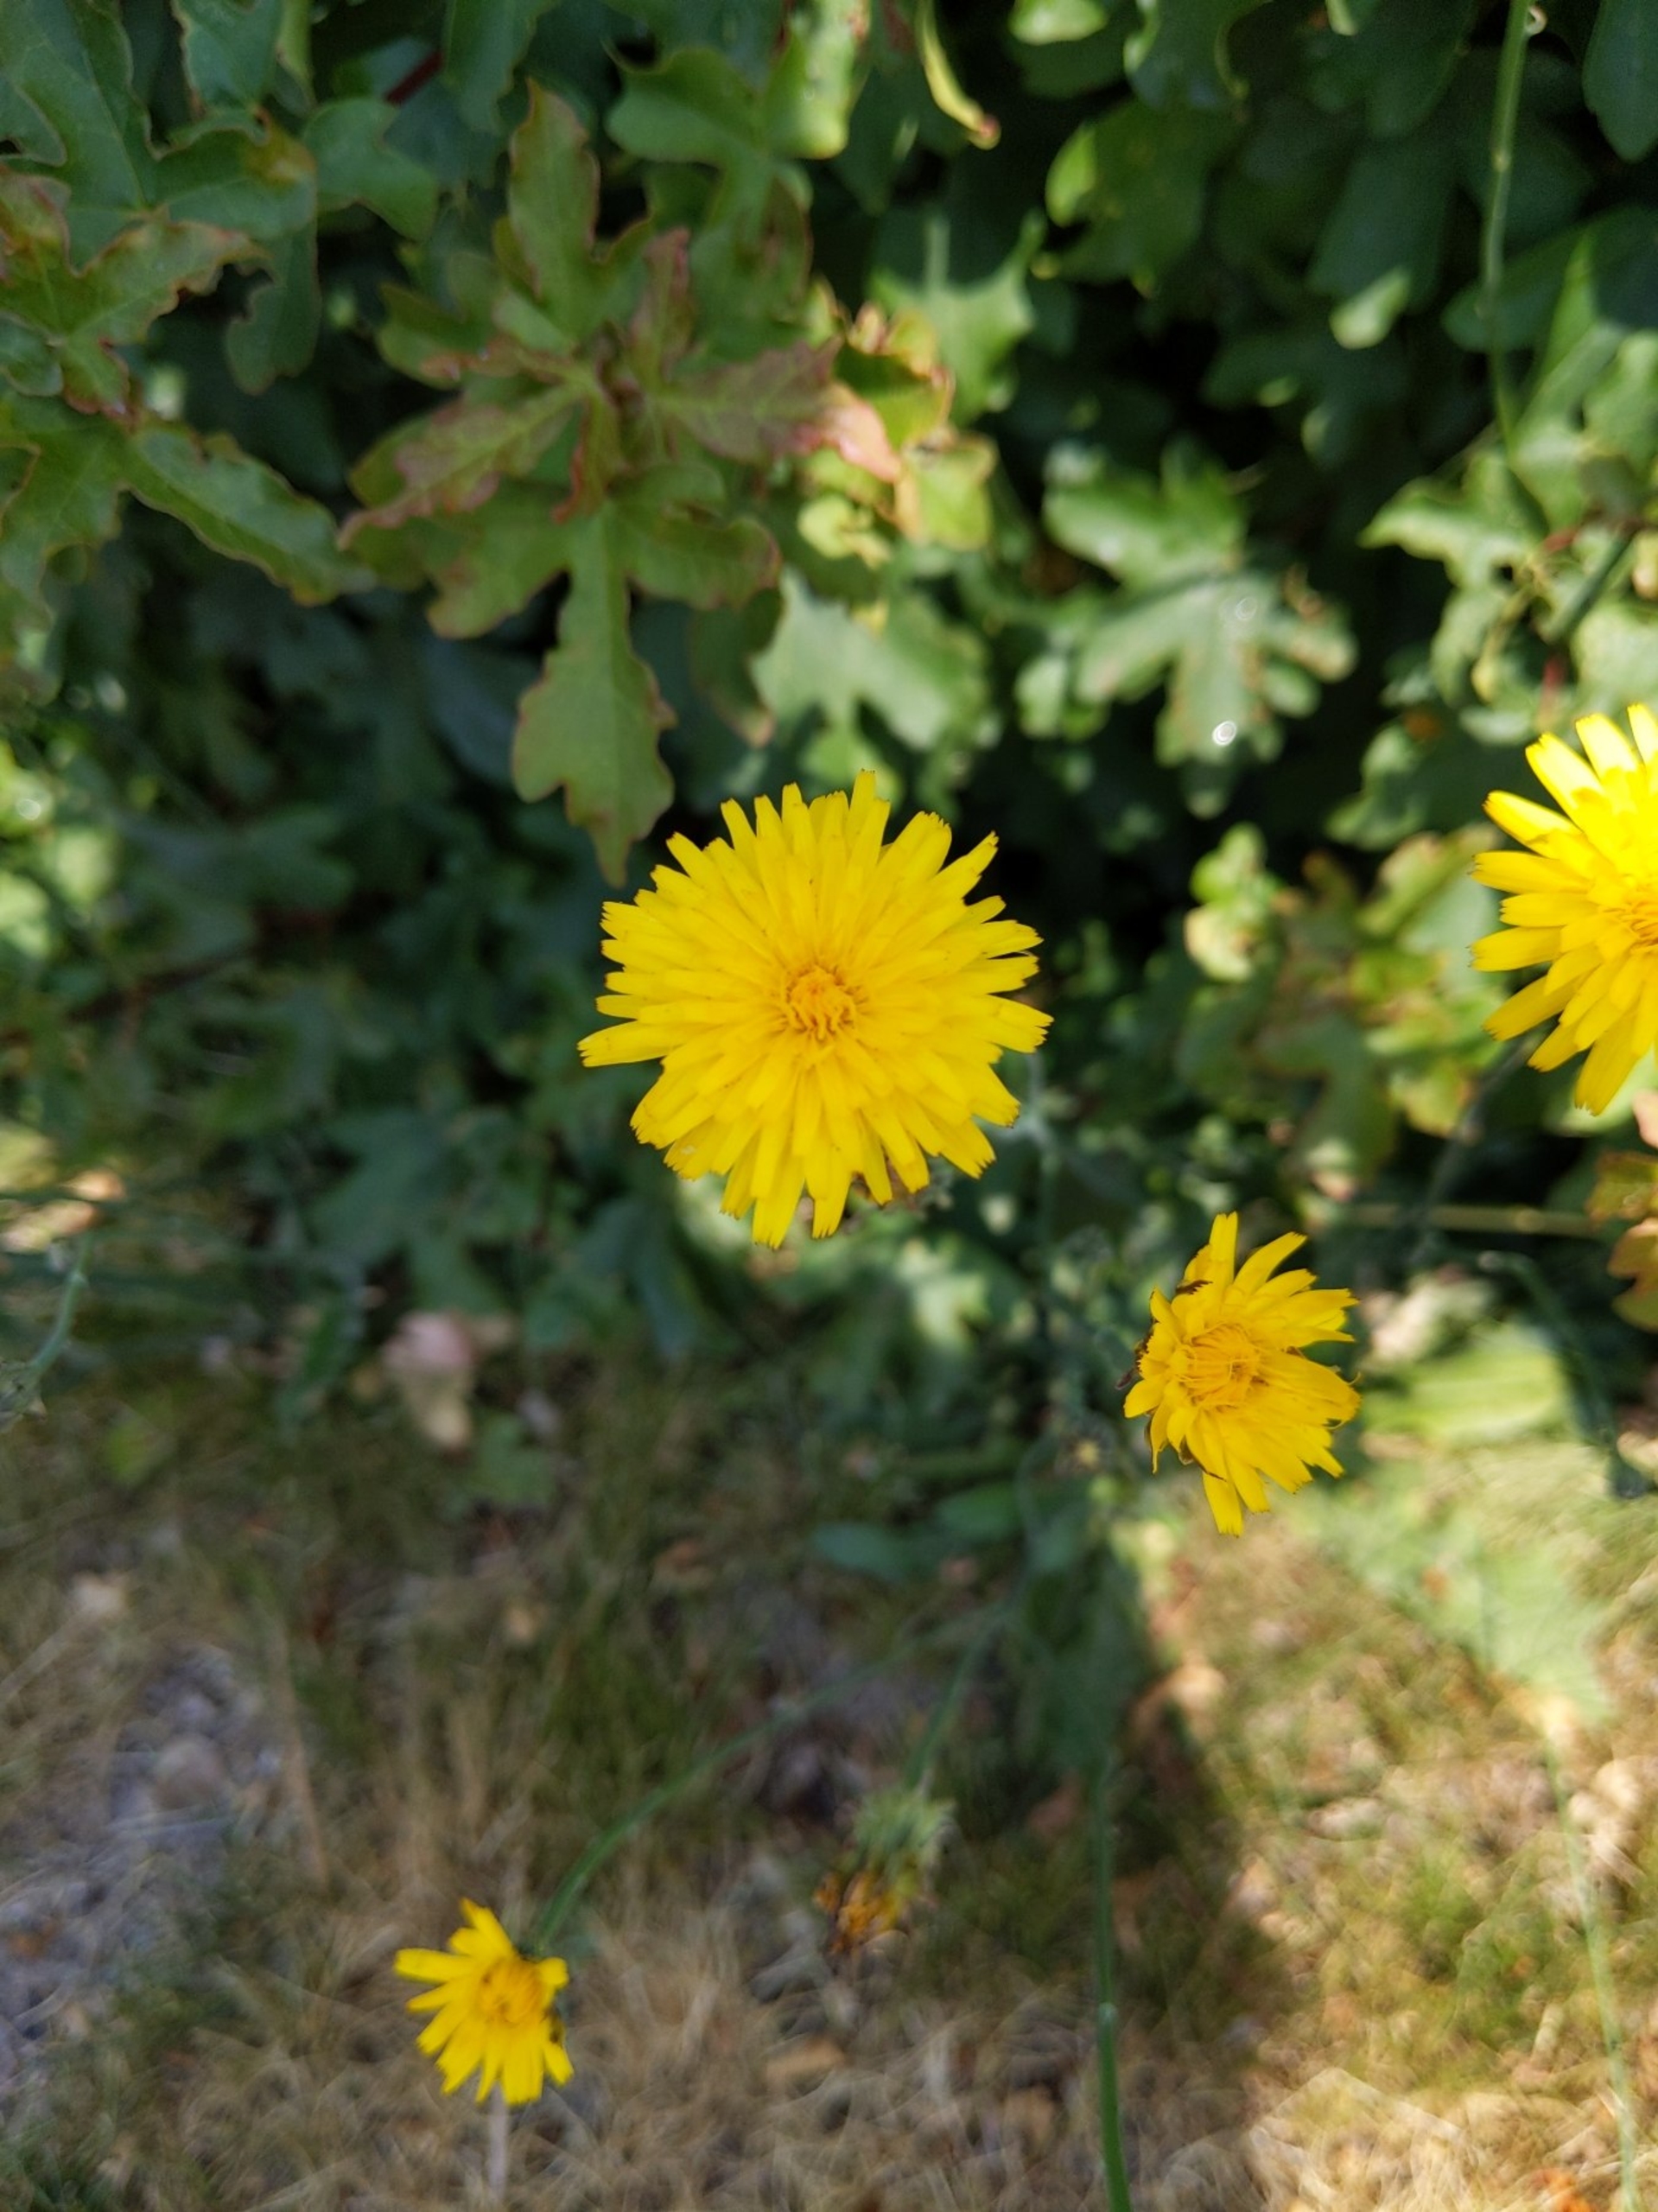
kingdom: Plantae
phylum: Tracheophyta
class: Magnoliopsida
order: Asterales
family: Asteraceae
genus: Hypochaeris
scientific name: Hypochaeris radicata
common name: Almindelig kongepen
